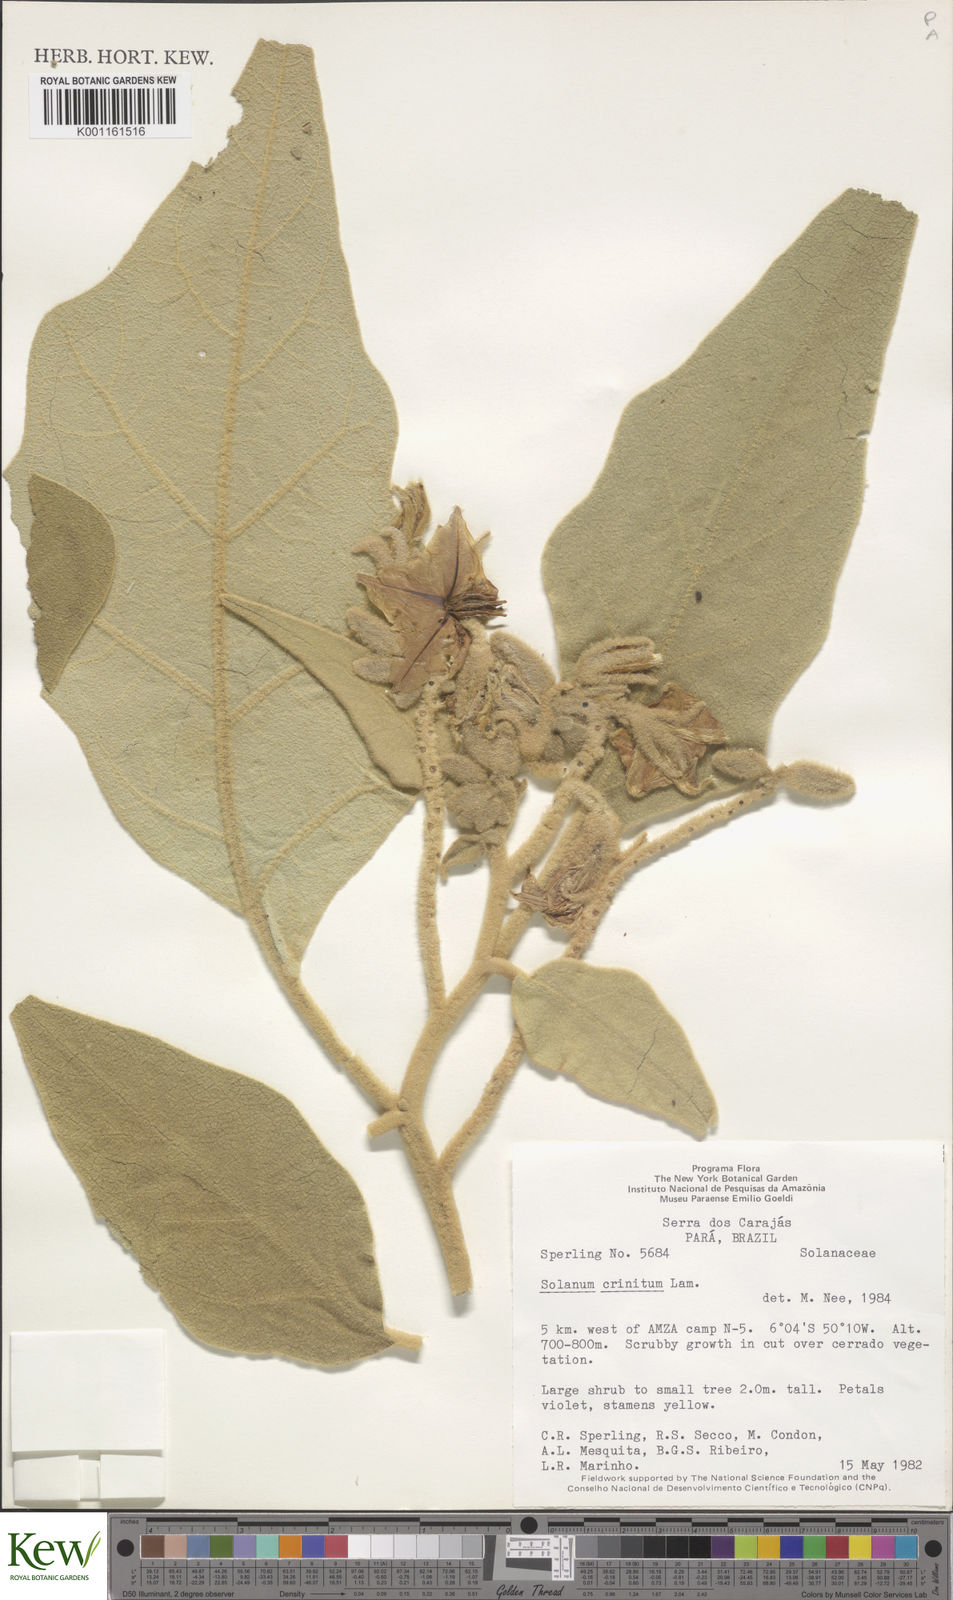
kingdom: Plantae
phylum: Tracheophyta
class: Magnoliopsida
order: Solanales
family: Solanaceae
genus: Solanum
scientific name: Solanum crinitum
